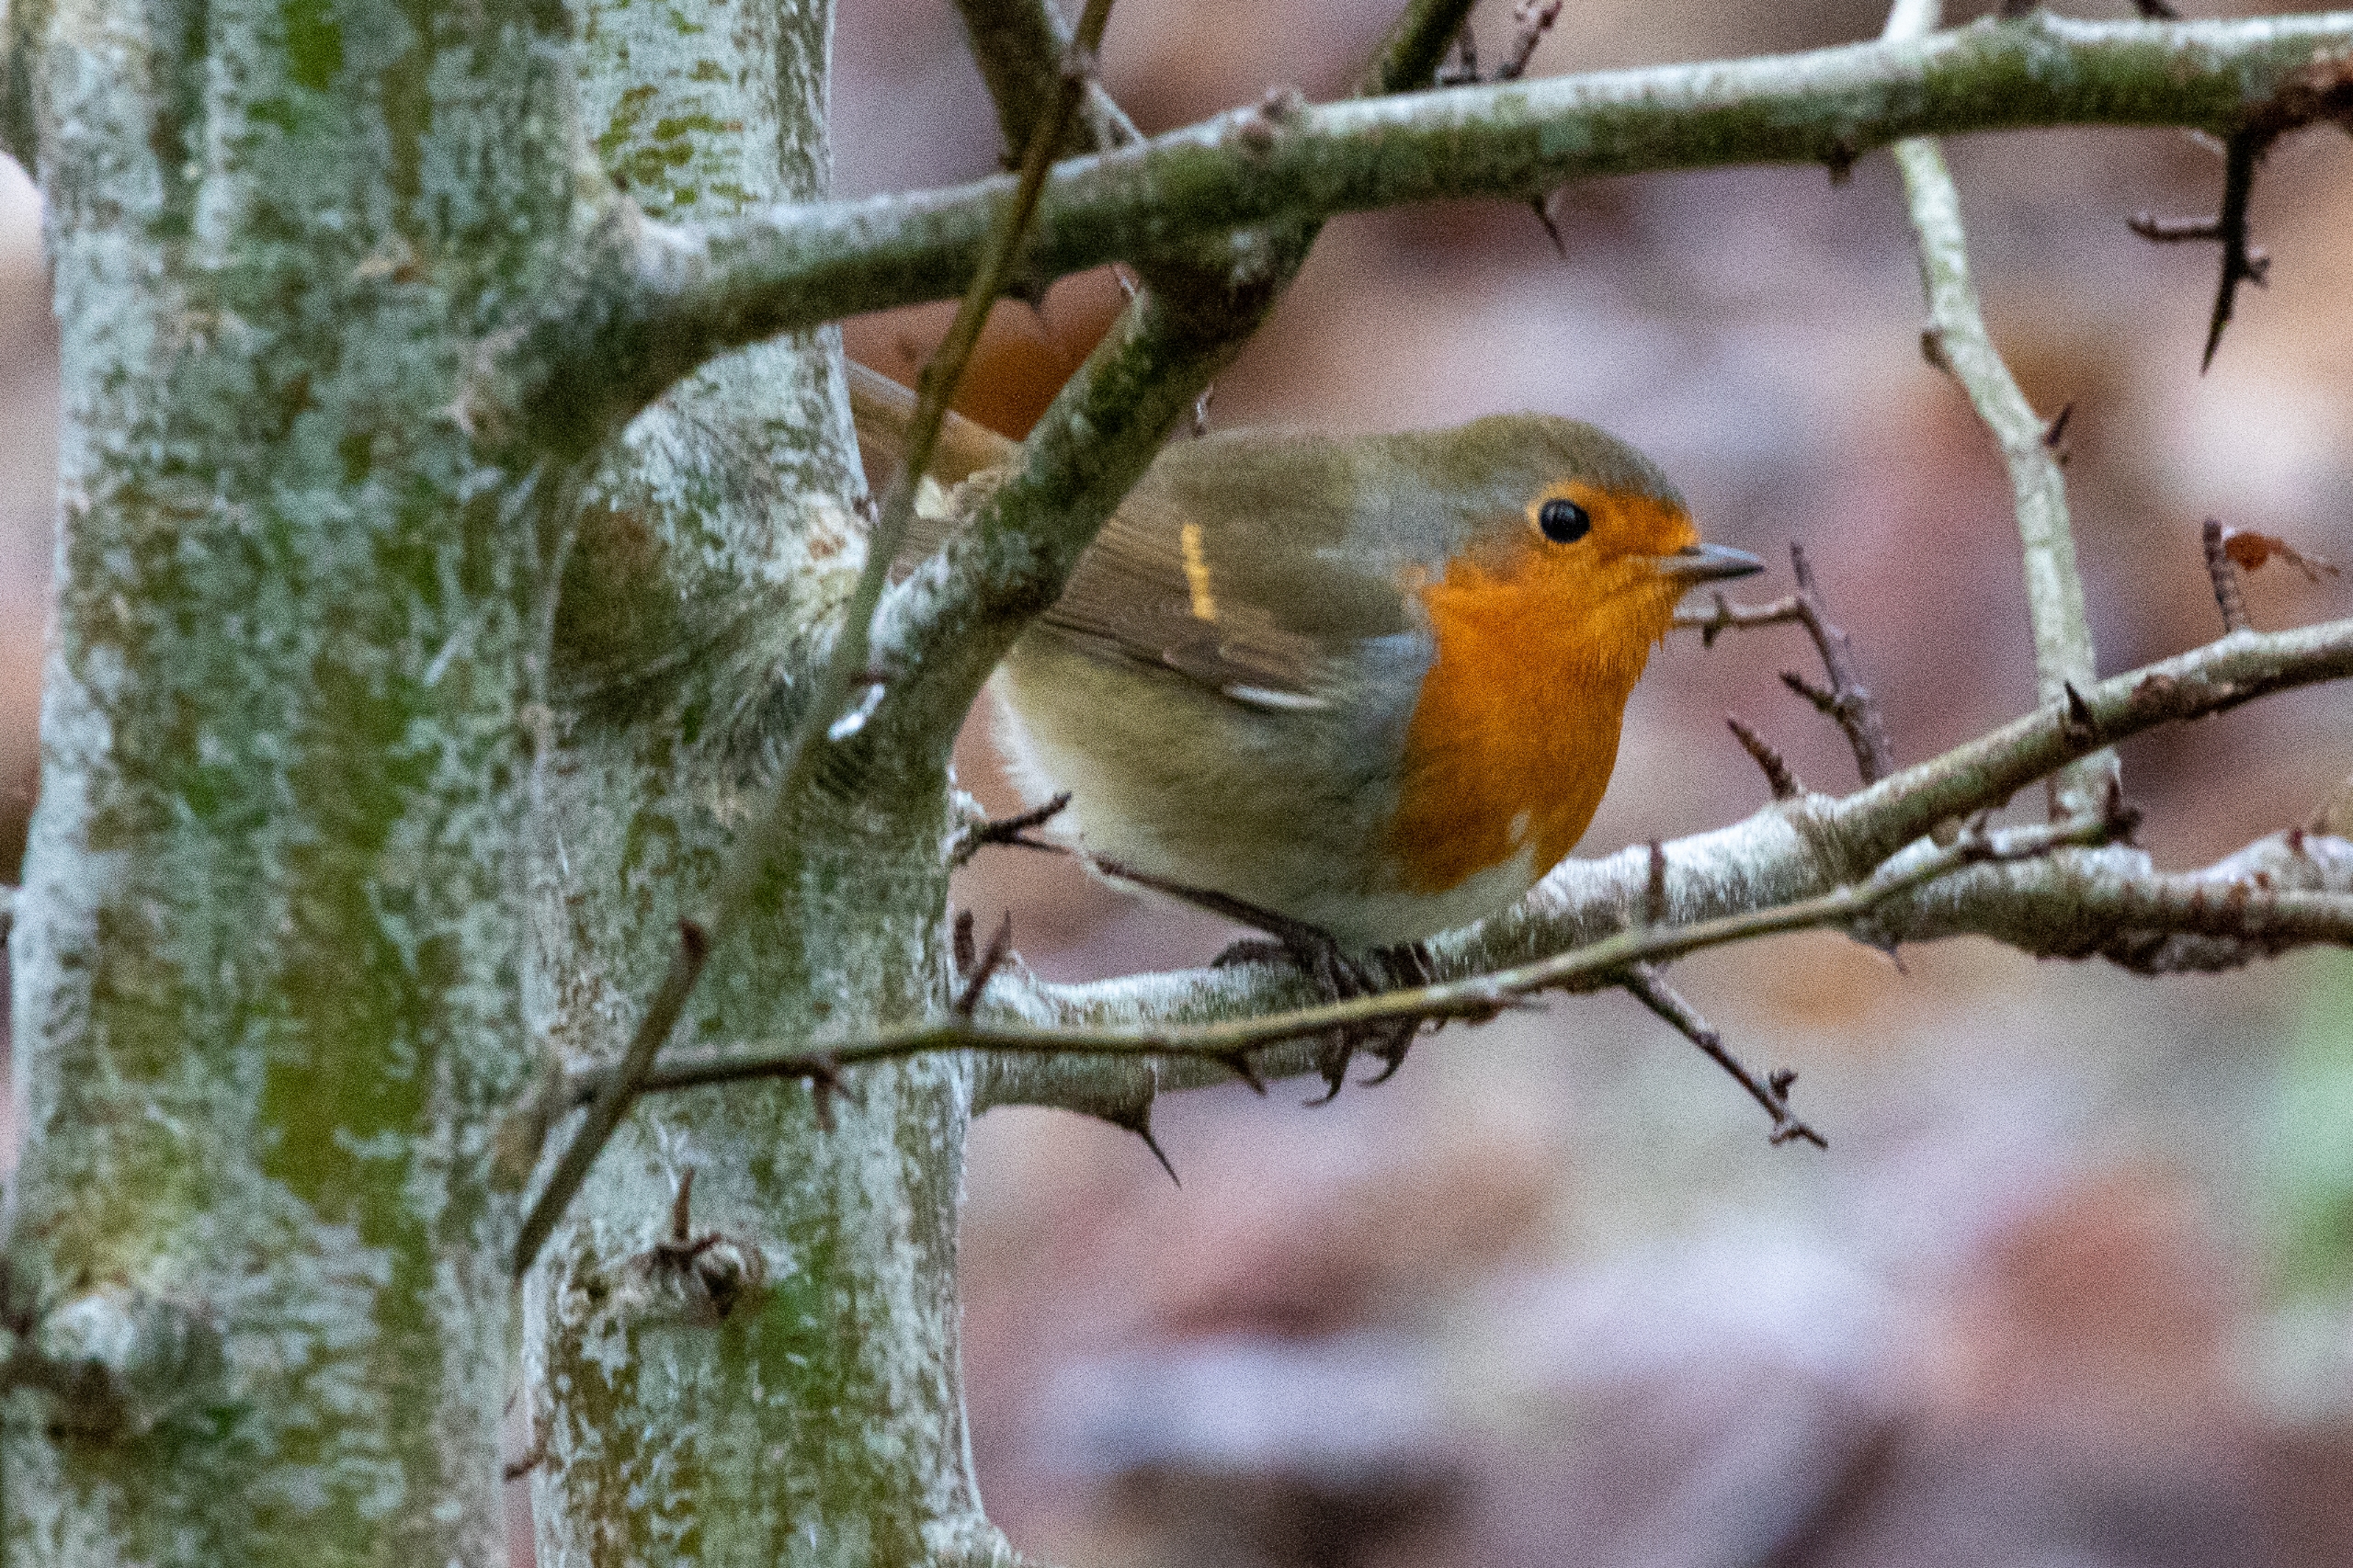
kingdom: Animalia
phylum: Chordata
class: Aves
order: Passeriformes
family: Muscicapidae
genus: Erithacus
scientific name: Erithacus rubecula
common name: Rødhals/rødkælk
